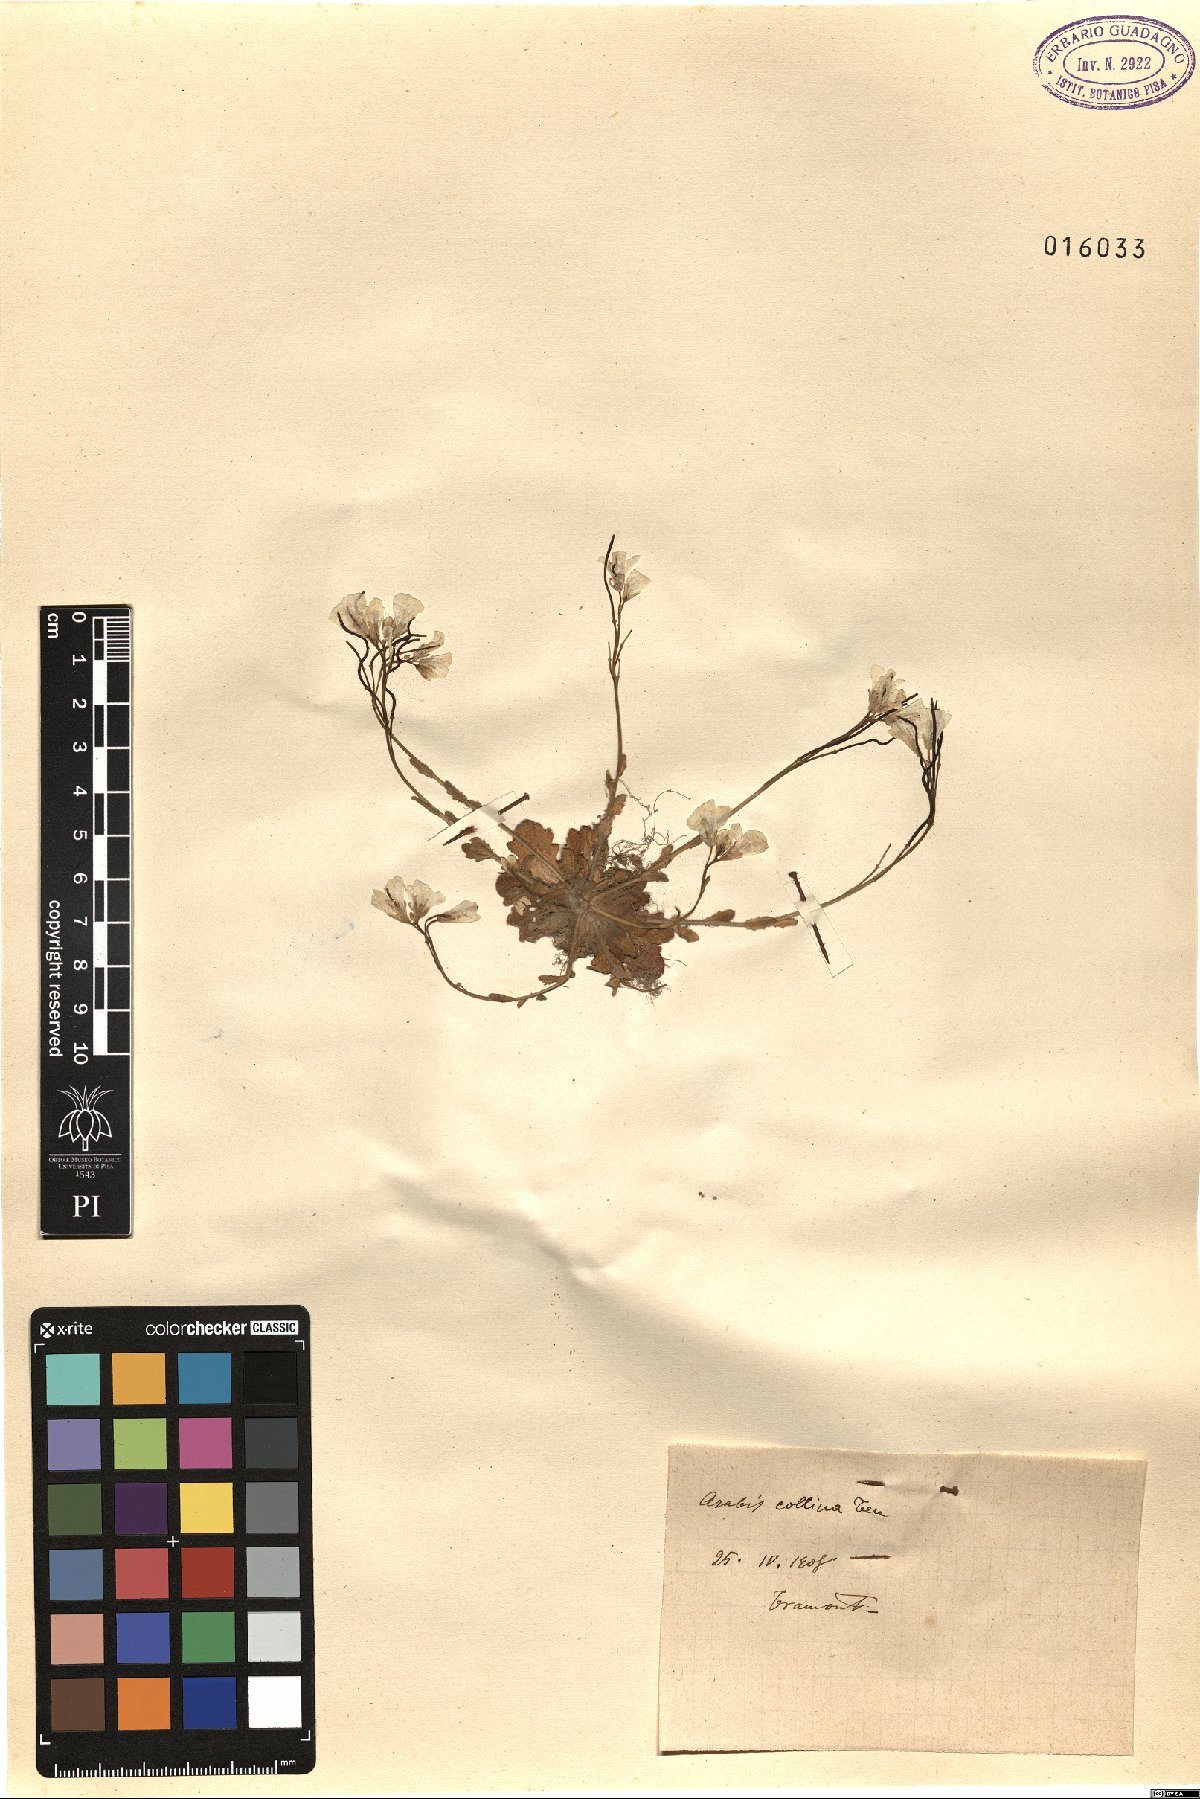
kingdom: Plantae
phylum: Tracheophyta
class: Magnoliopsida
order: Brassicales
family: Brassicaceae
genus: Arabis
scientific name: Arabis collina
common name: Rosy cress
